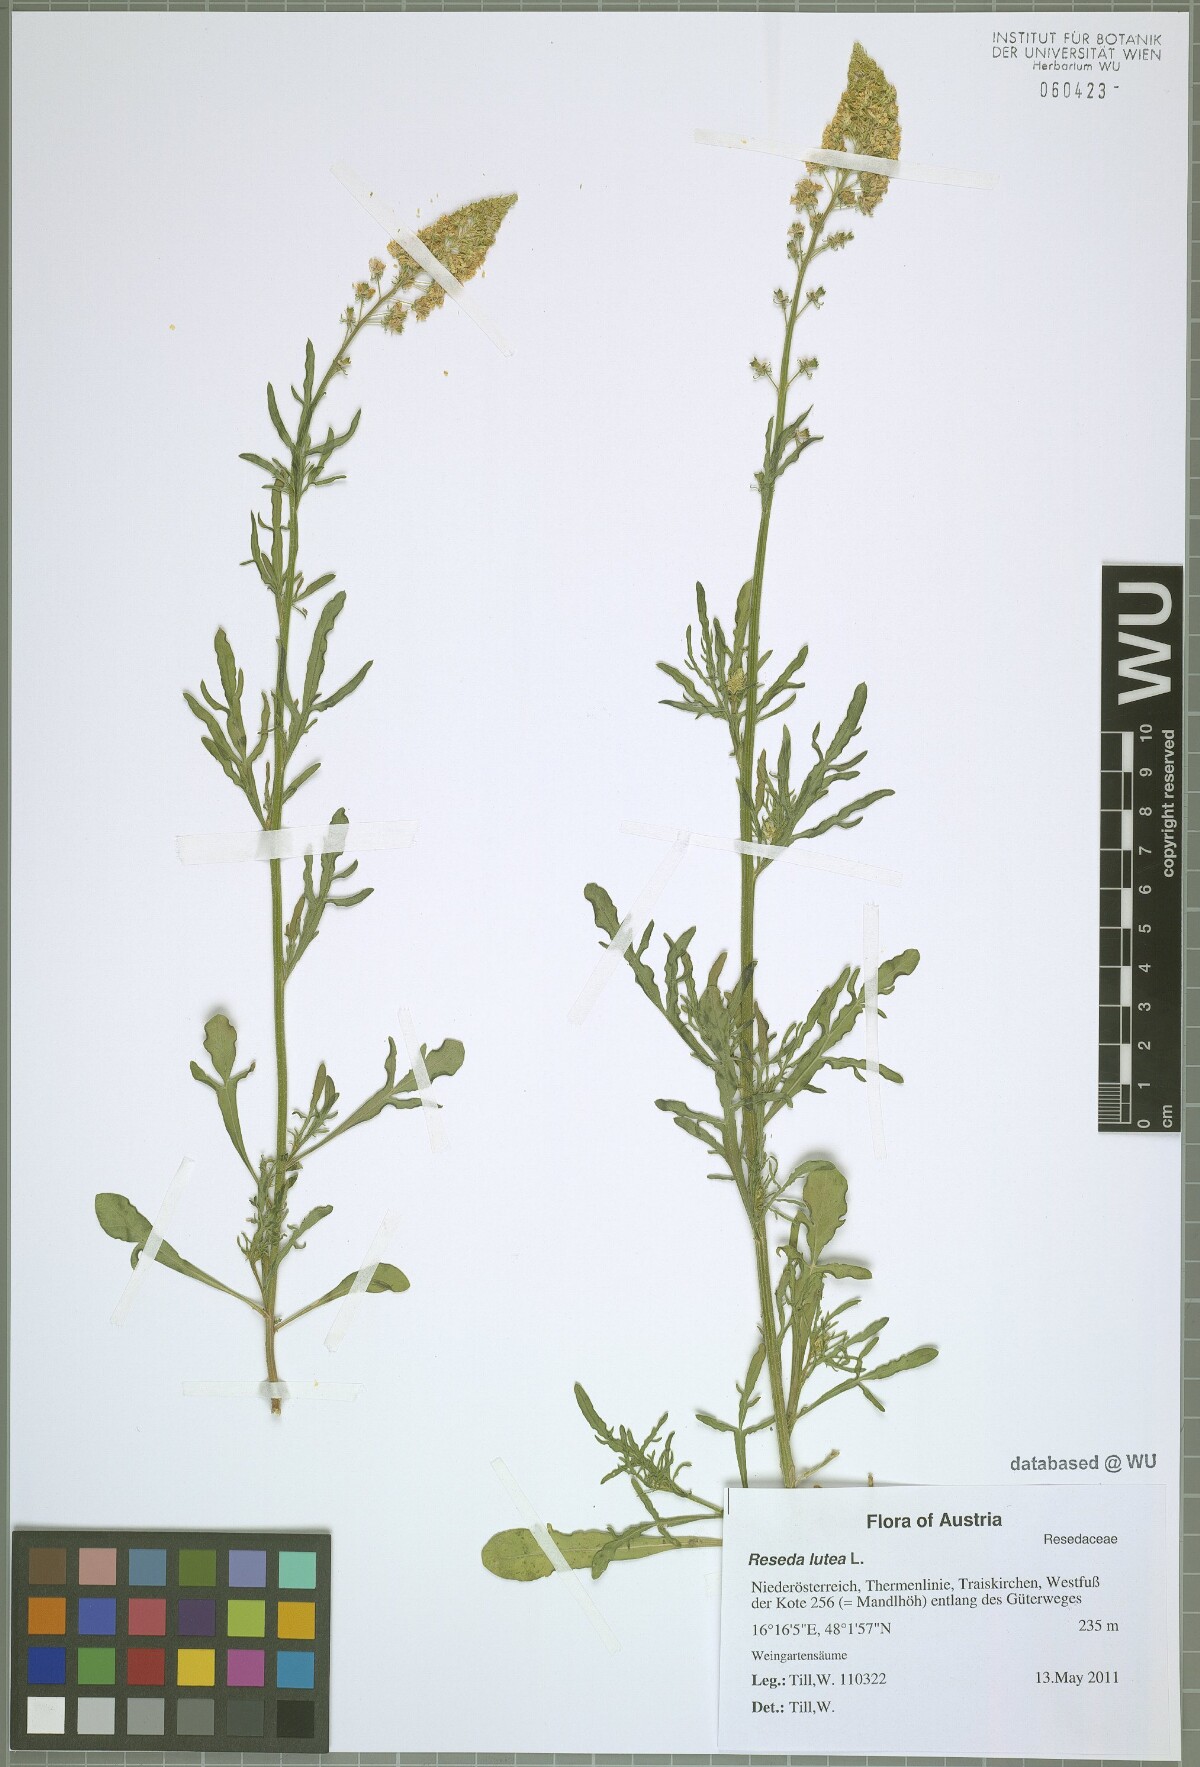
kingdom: Plantae
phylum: Tracheophyta
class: Magnoliopsida
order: Brassicales
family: Resedaceae
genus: Reseda
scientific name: Reseda lutea
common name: Wild mignonette
